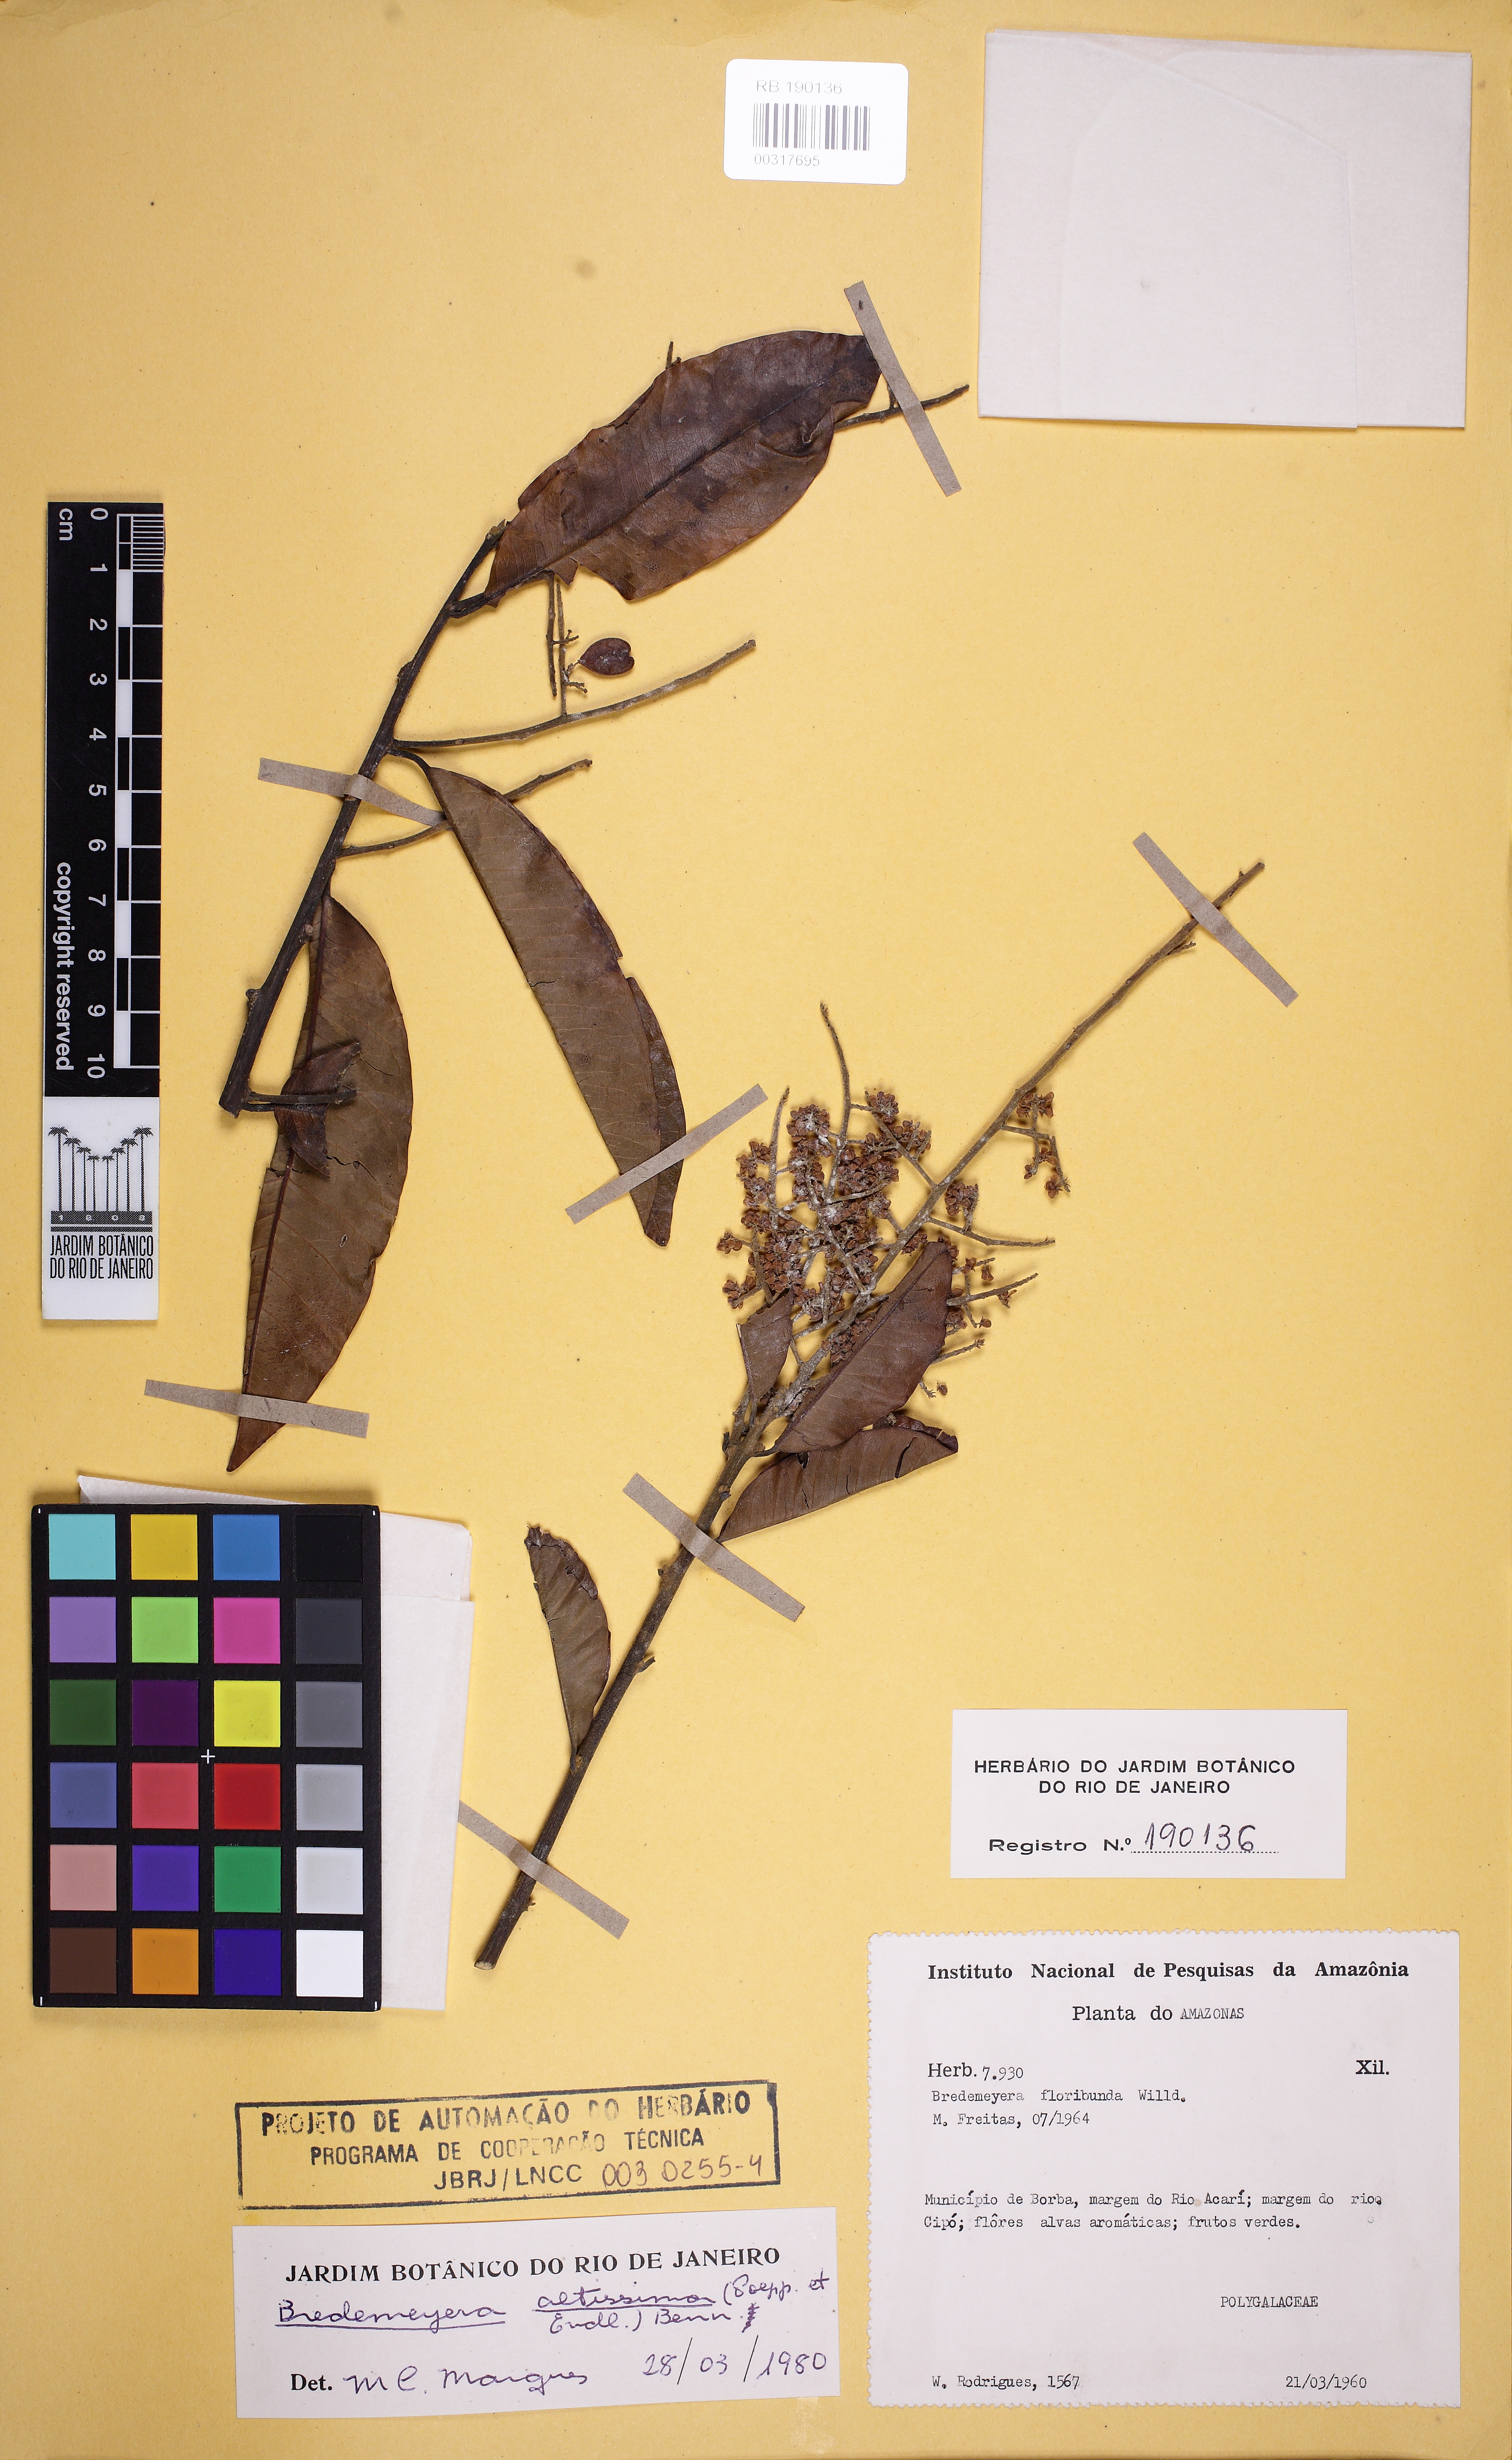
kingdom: Plantae
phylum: Tracheophyta
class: Magnoliopsida
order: Fabales
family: Polygalaceae
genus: Bredemeyera
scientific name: Bredemeyera divaricata
